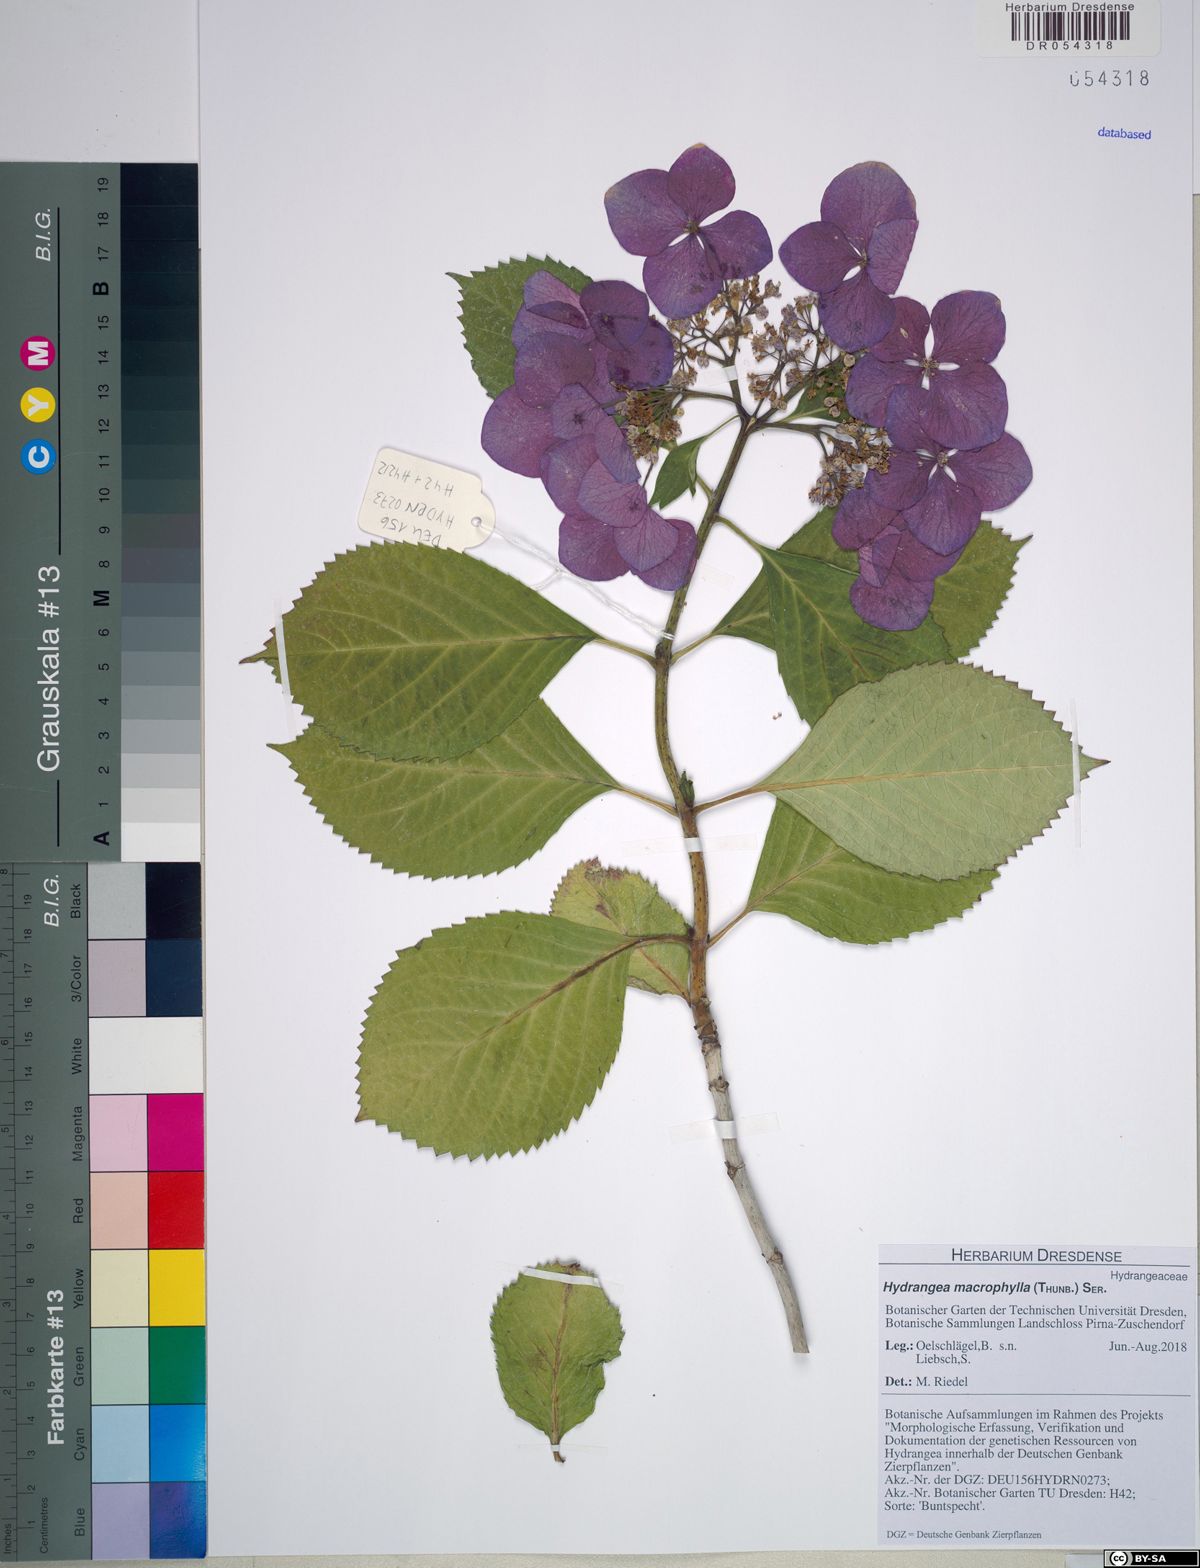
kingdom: Plantae
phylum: Tracheophyta
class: Magnoliopsida
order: Cornales
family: Hydrangeaceae
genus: Hydrangea
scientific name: Hydrangea macrophylla
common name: Hydrangea
